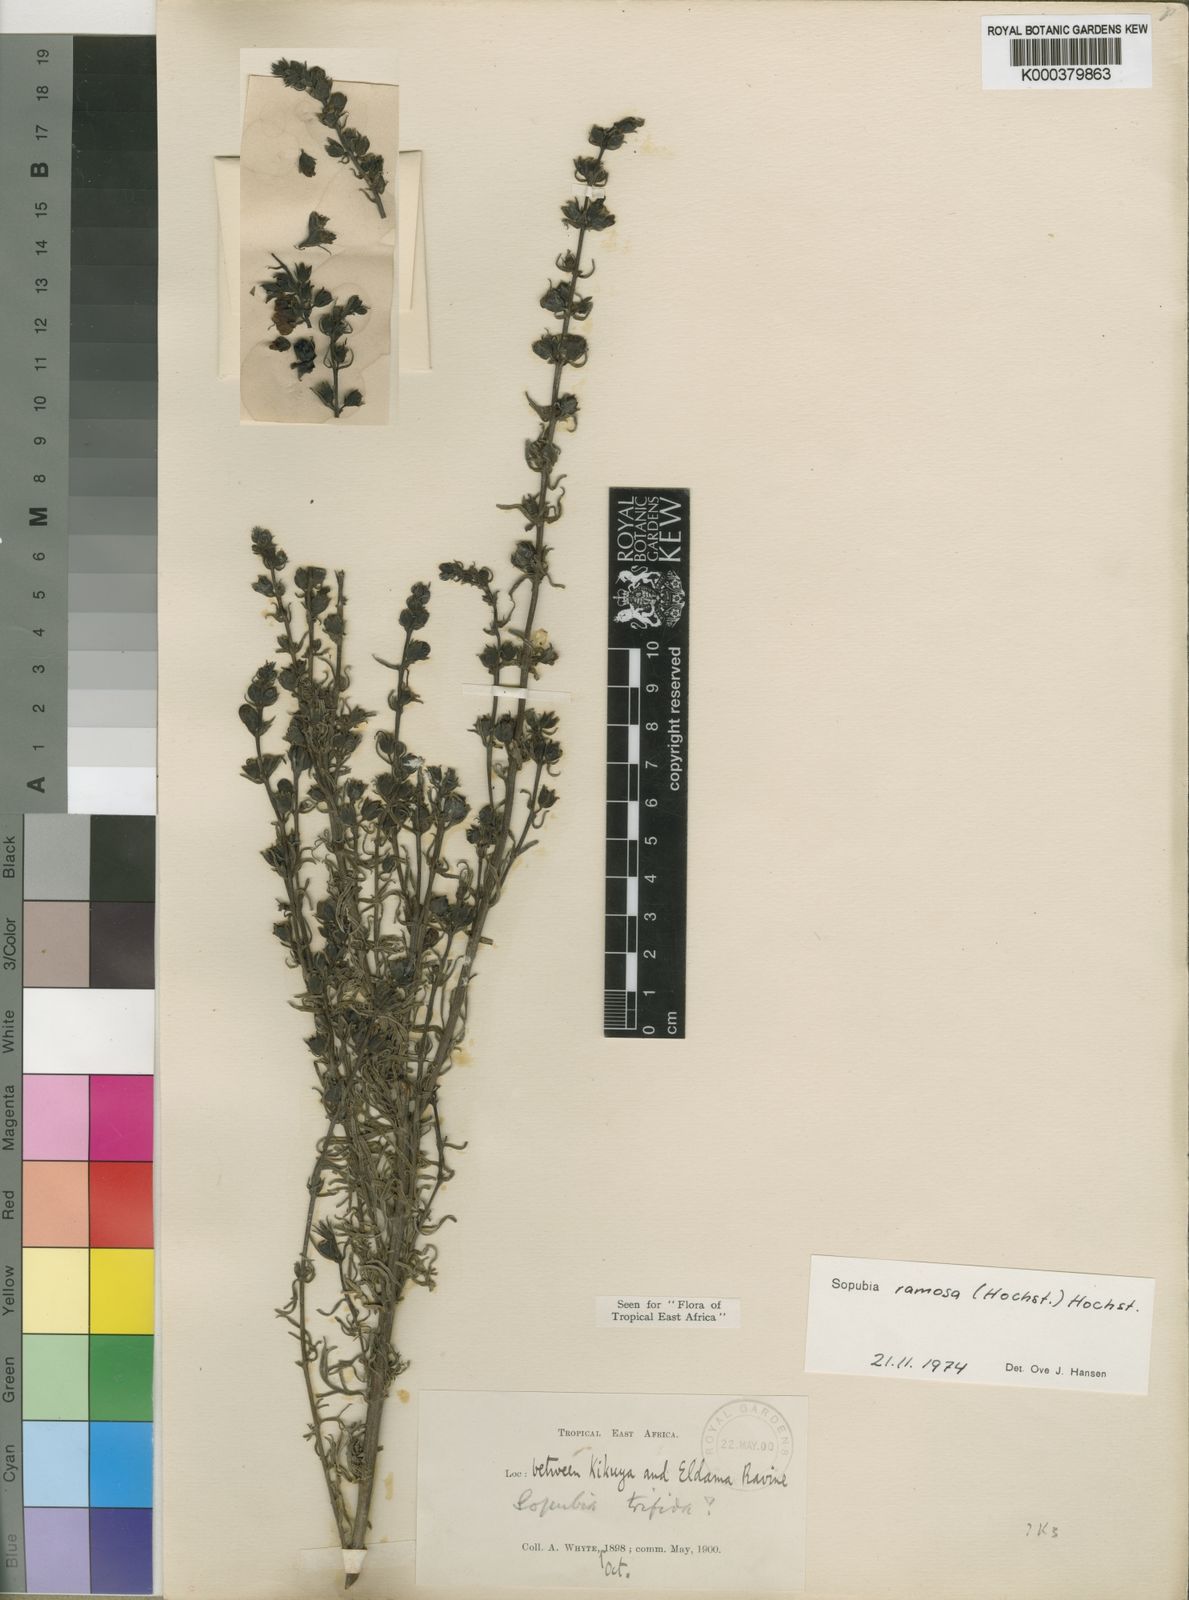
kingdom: Plantae
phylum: Tracheophyta
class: Magnoliopsida
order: Lamiales
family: Orobanchaceae
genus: Sopubia
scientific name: Sopubia ramosa
